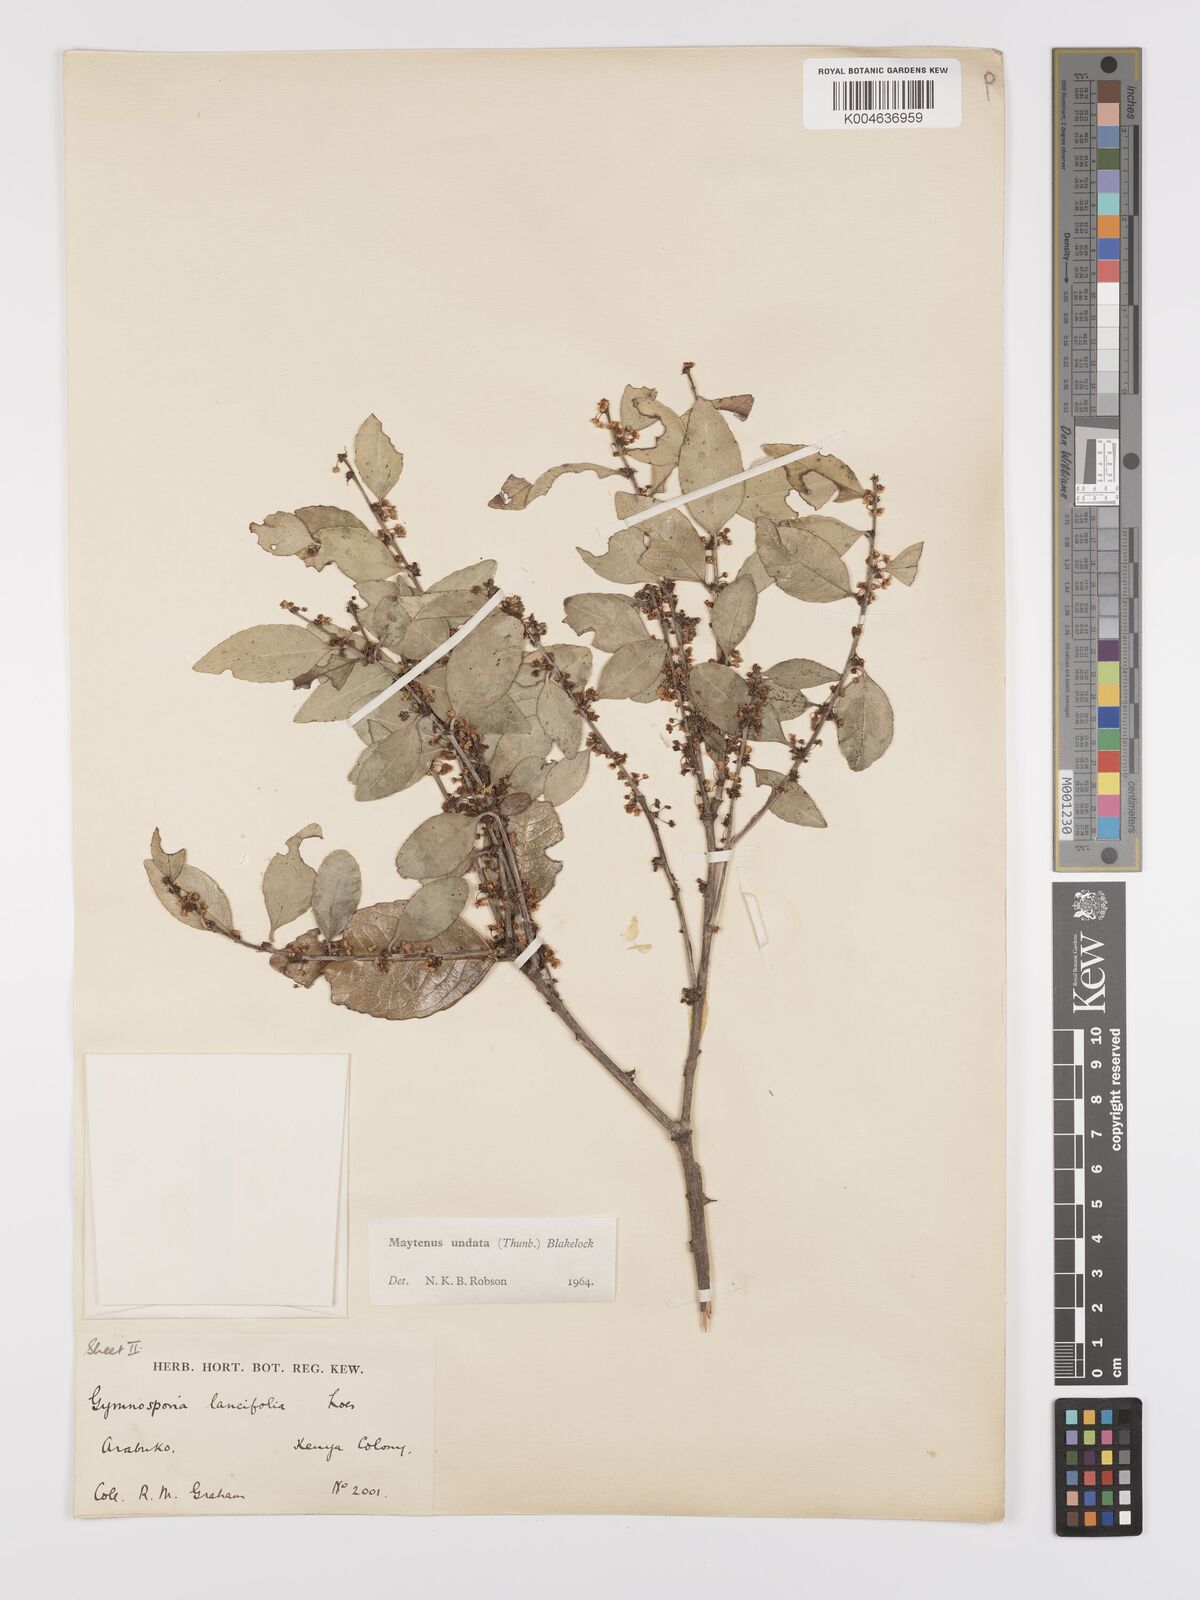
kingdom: Plantae
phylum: Tracheophyta
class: Magnoliopsida
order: Celastrales
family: Celastraceae
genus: Gymnosporia
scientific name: Gymnosporia undata
